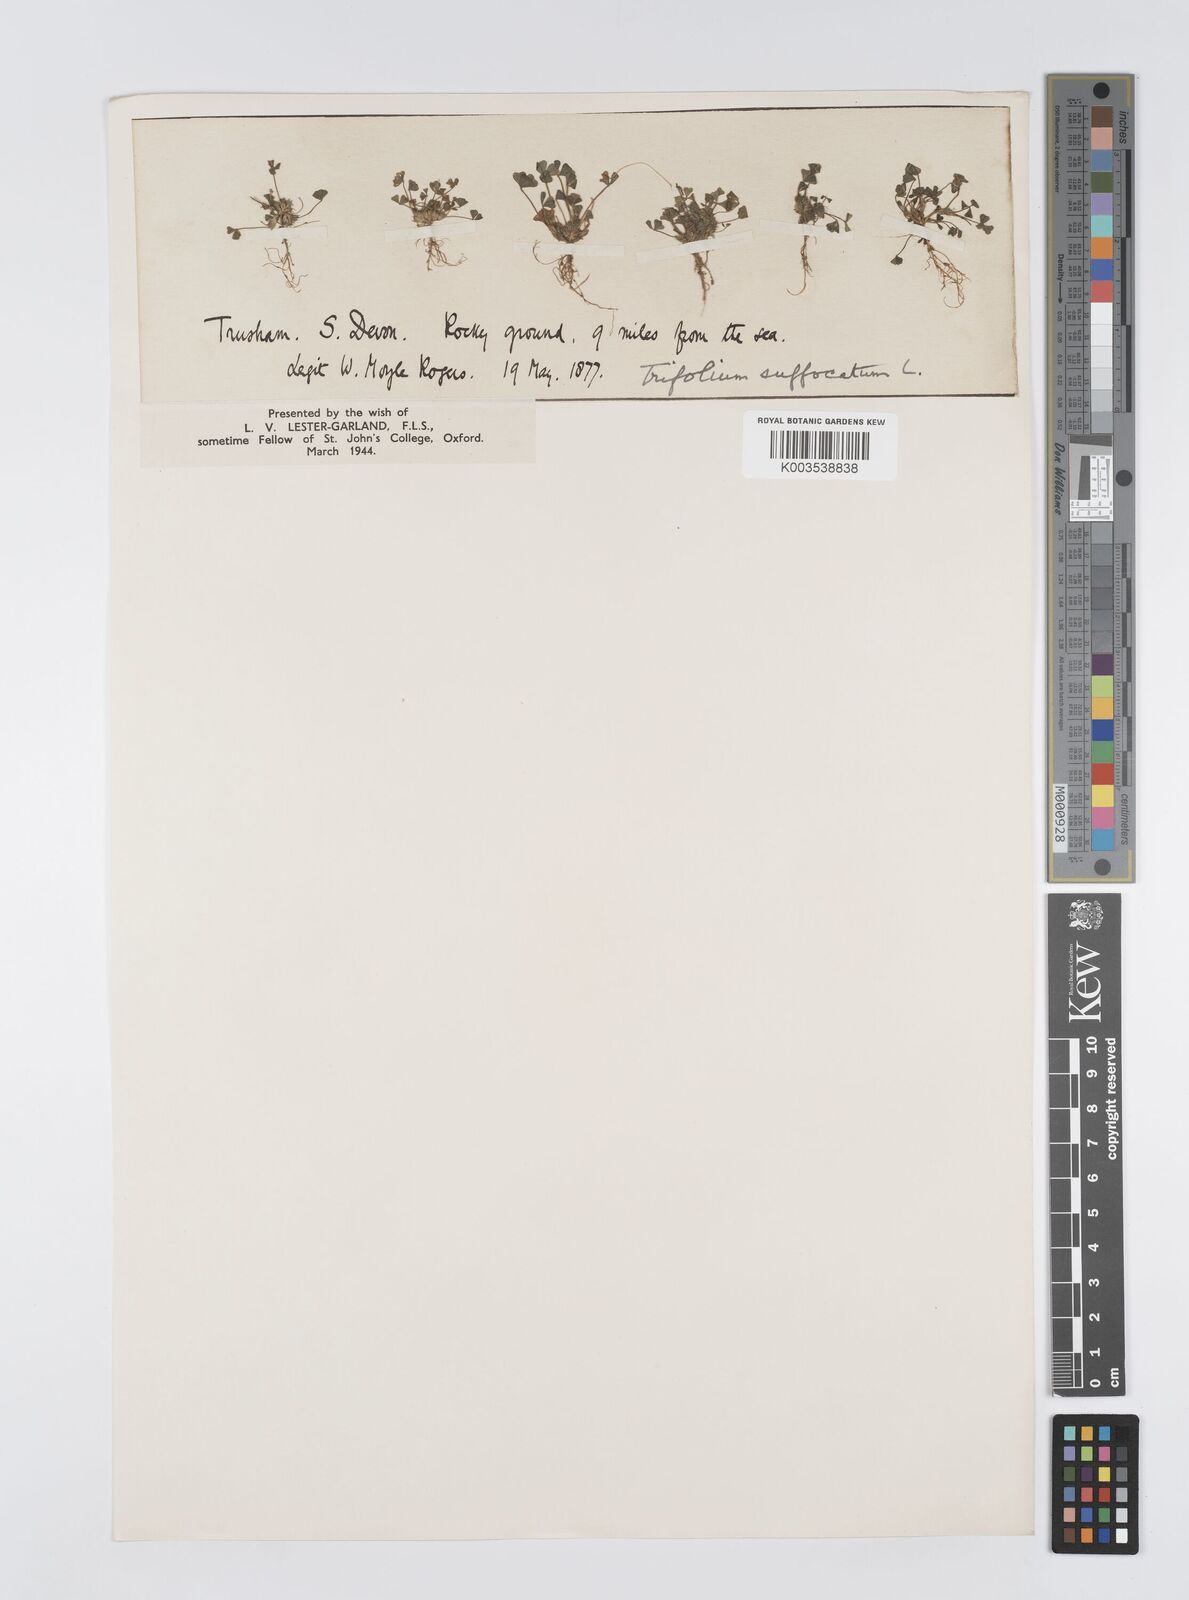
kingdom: Plantae
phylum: Tracheophyta
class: Magnoliopsida
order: Fabales
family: Fabaceae
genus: Trifolium
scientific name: Trifolium suffocatum
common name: Suffocated clover
